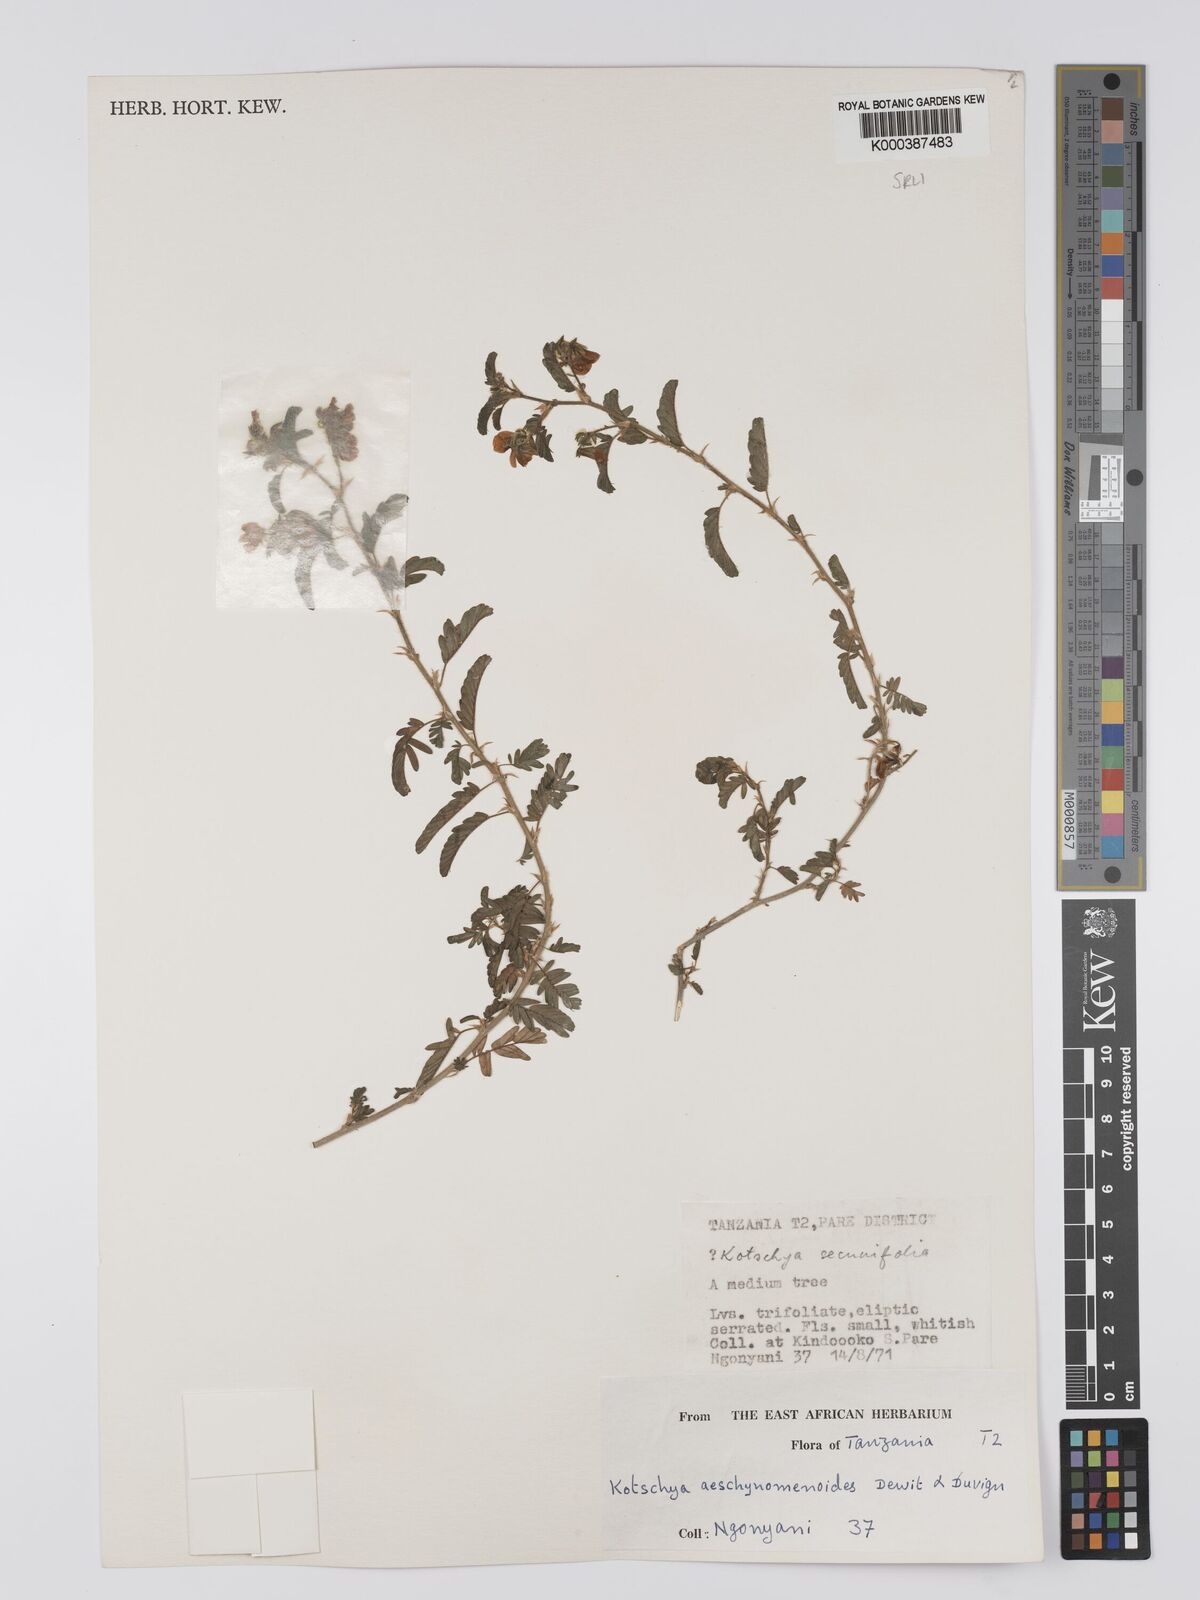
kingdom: Plantae
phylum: Tracheophyta
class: Magnoliopsida
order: Fabales
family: Fabaceae
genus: Kotschya
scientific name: Kotschya aeschynomenoides
